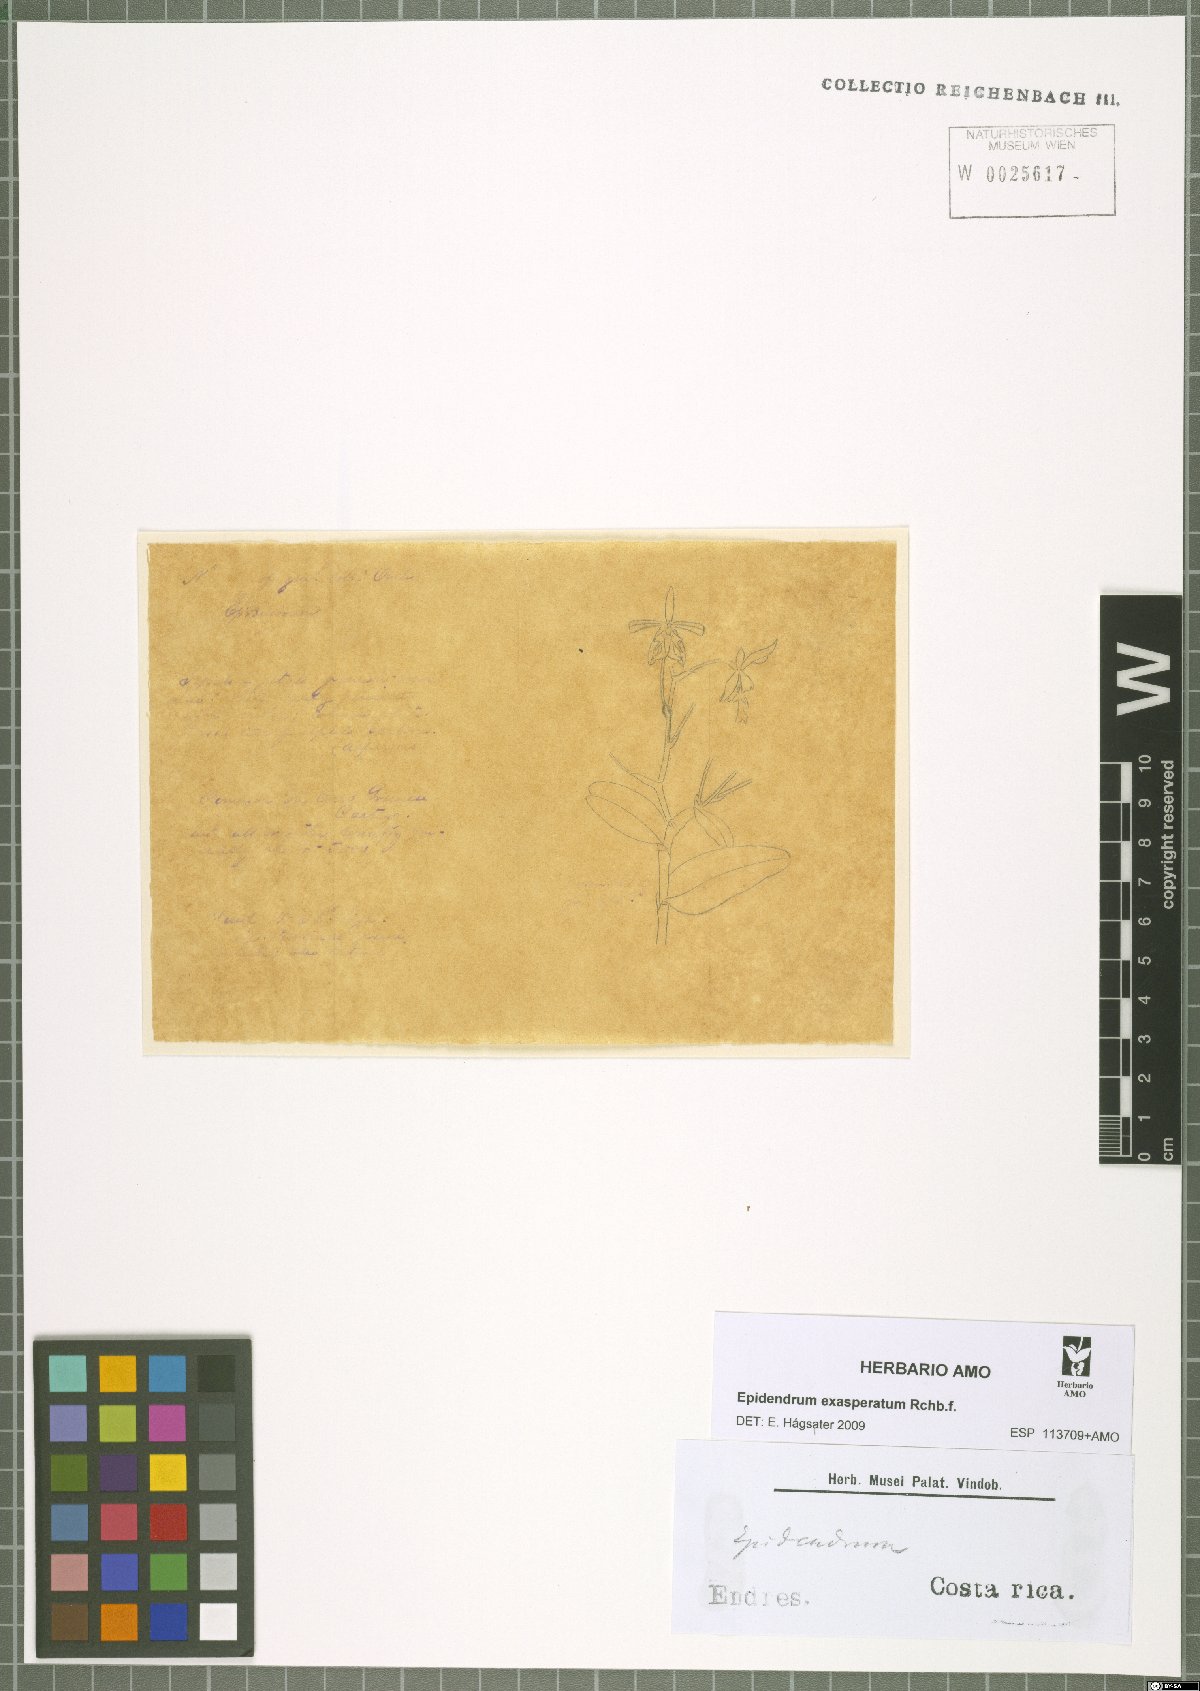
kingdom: Plantae
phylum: Tracheophyta
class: Liliopsida
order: Asparagales
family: Orchidaceae
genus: Epidendrum
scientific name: Epidendrum exasperatum
